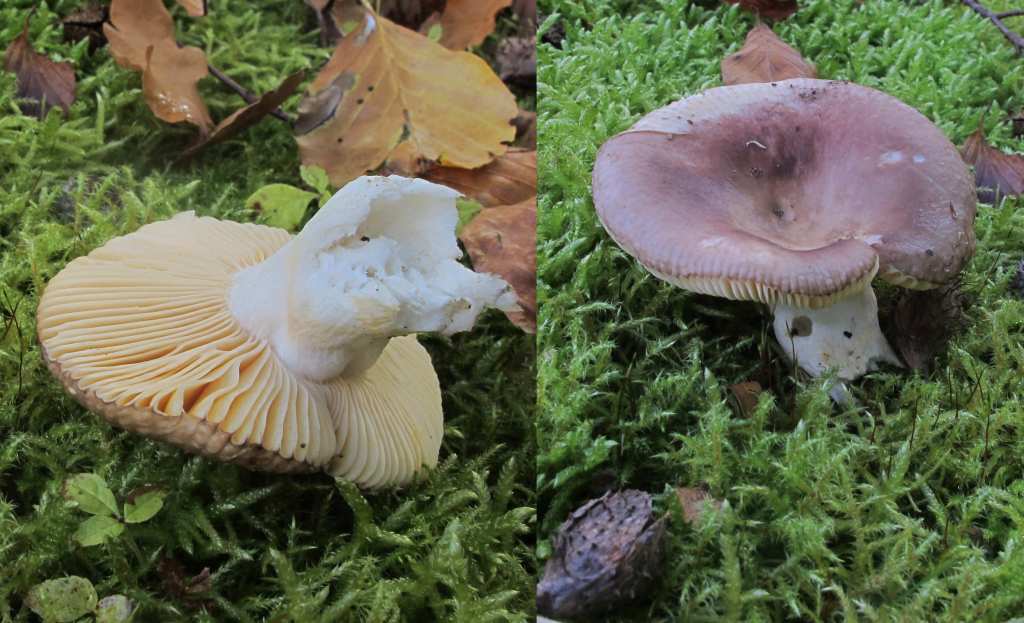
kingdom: Fungi
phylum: Basidiomycota
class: Agaricomycetes
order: Russulales
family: Russulaceae
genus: Russula
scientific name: Russula veternosa
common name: blødkødet skørhat
